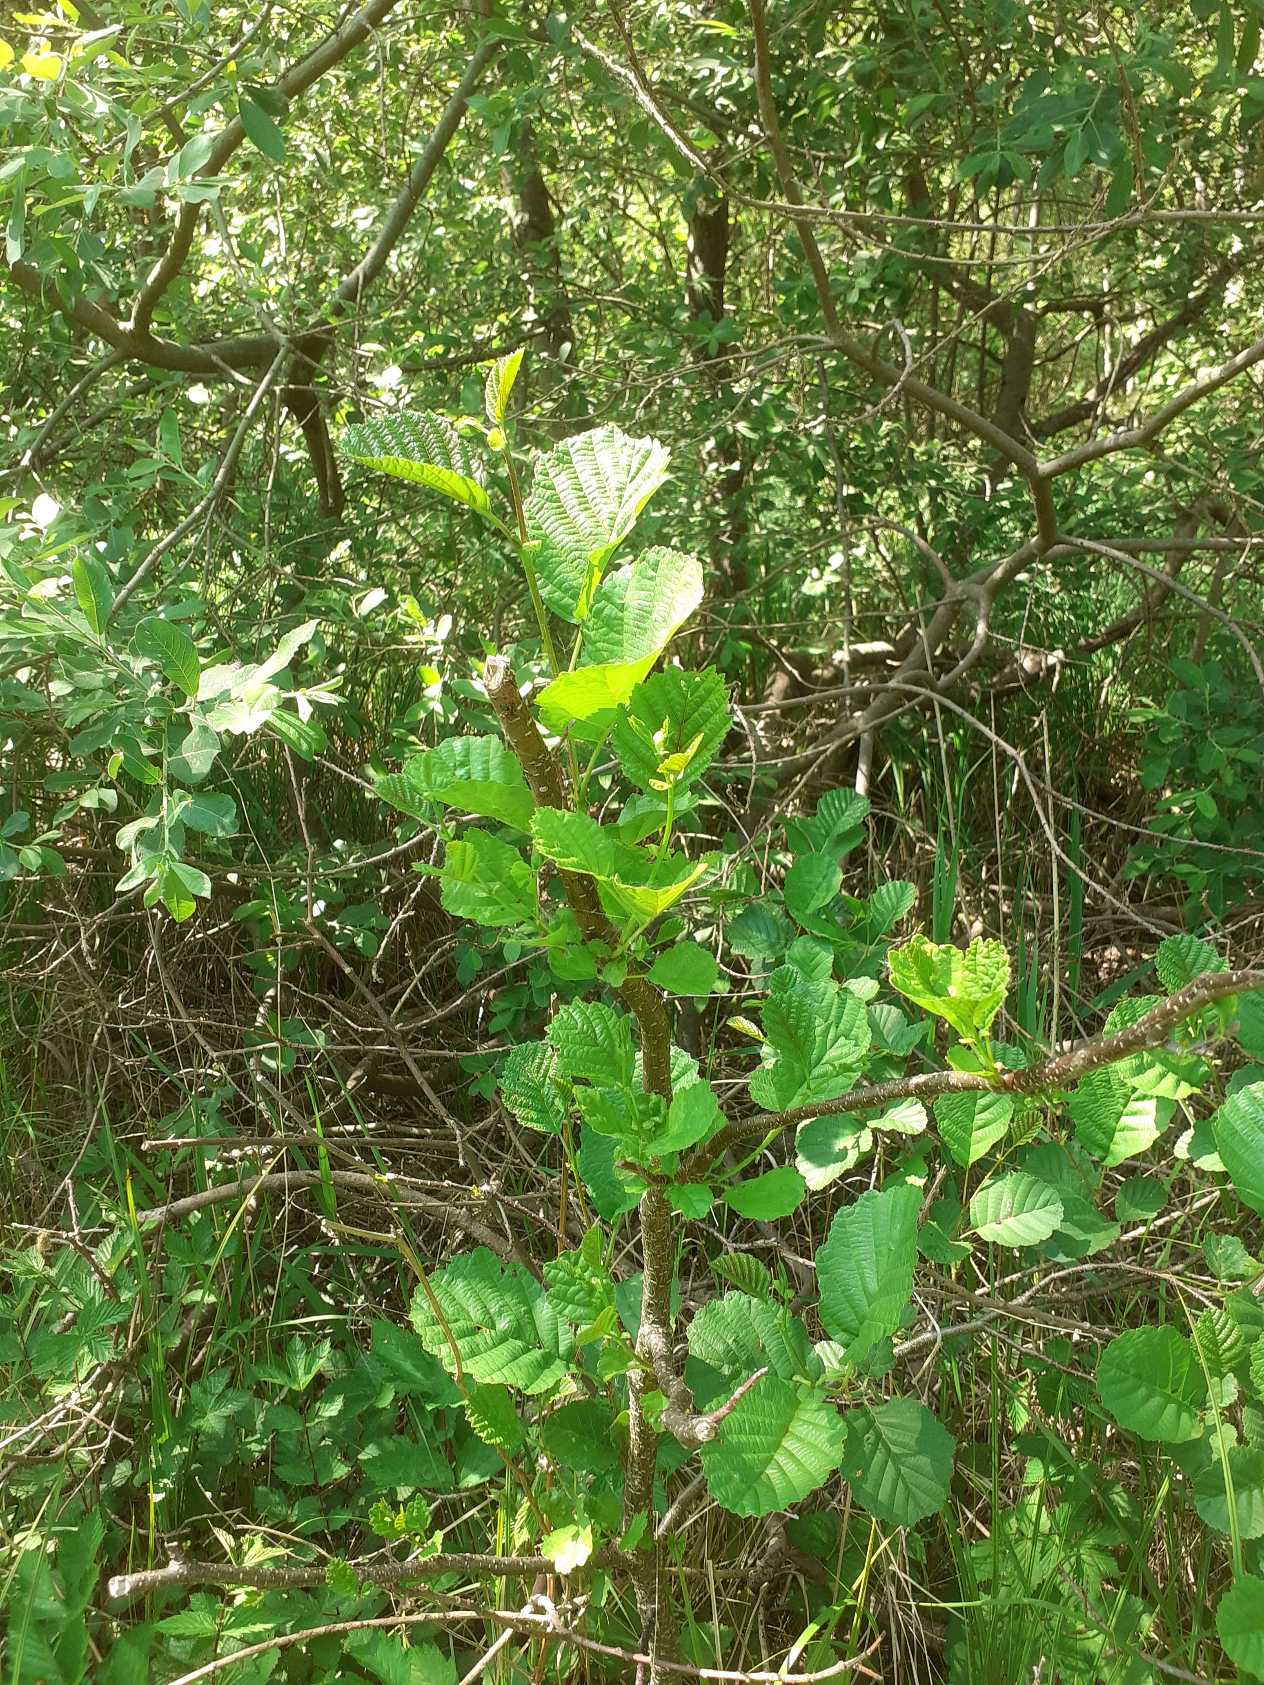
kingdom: Plantae
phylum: Tracheophyta
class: Magnoliopsida
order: Fagales
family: Betulaceae
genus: Alnus
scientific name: Alnus glutinosa
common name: Rød-el
